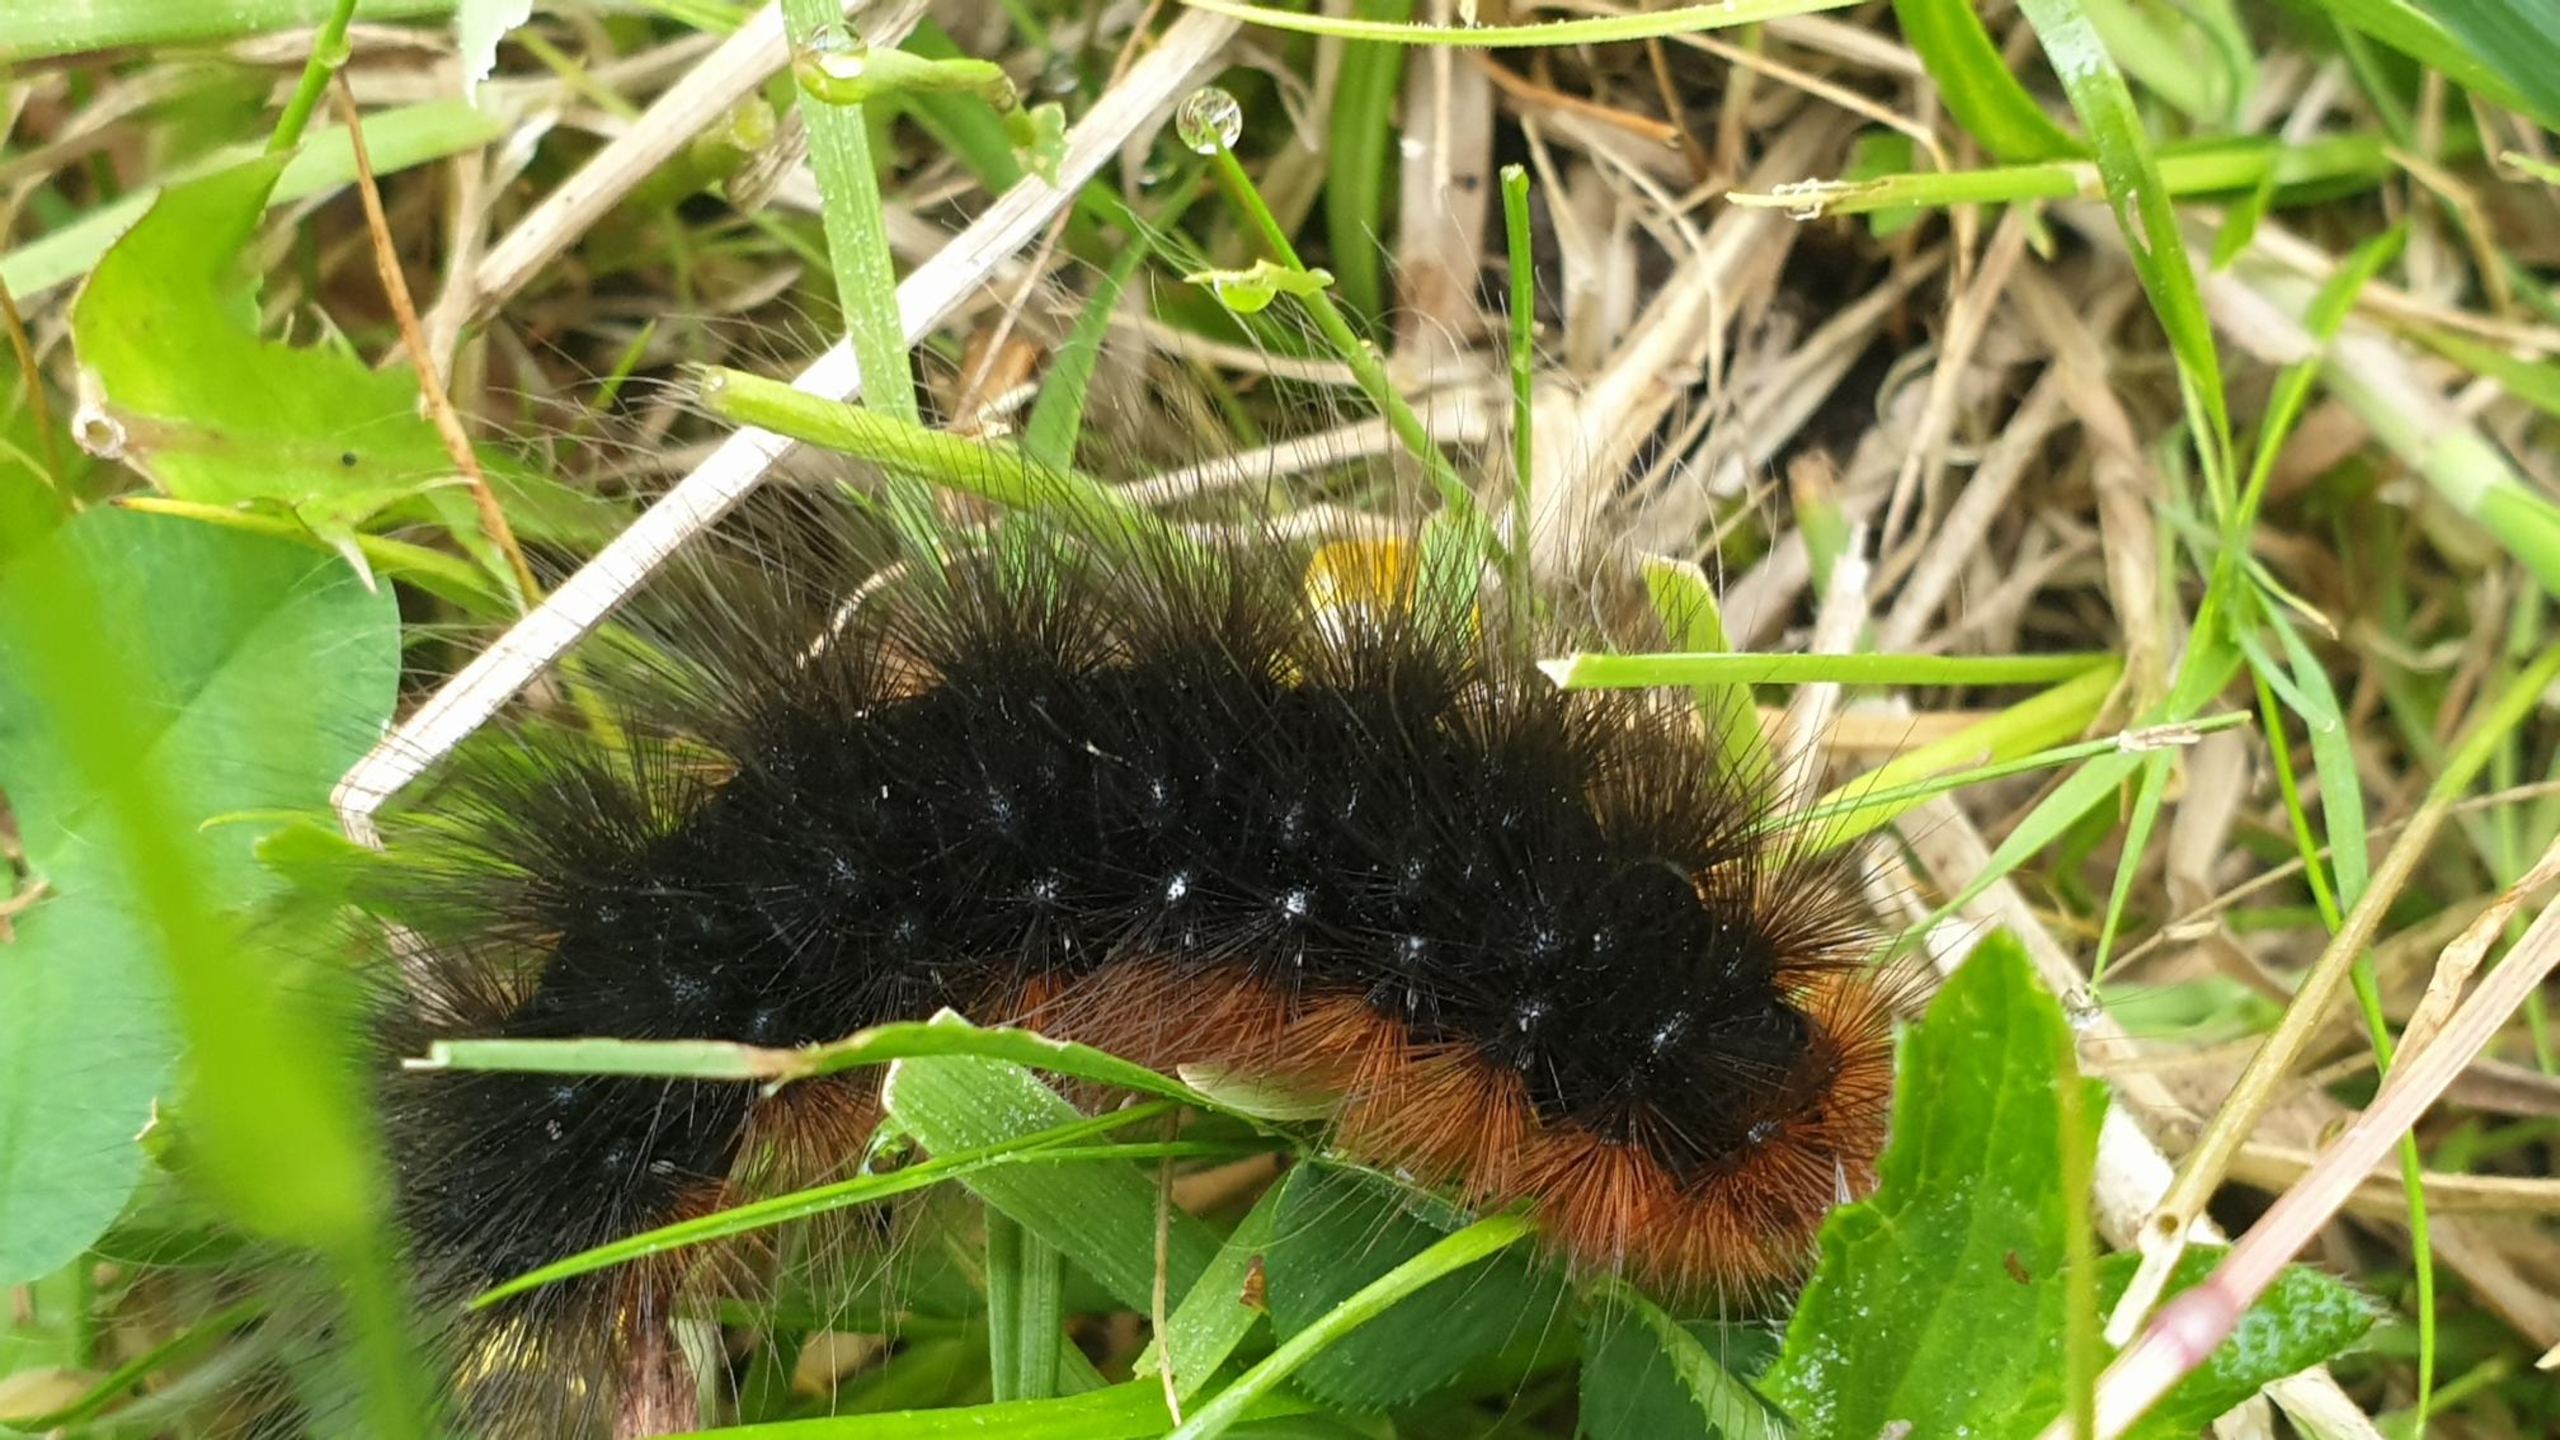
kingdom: Animalia
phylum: Arthropoda
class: Insecta
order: Lepidoptera
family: Erebidae
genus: Arctia
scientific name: Arctia caja
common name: Brun bjørn
